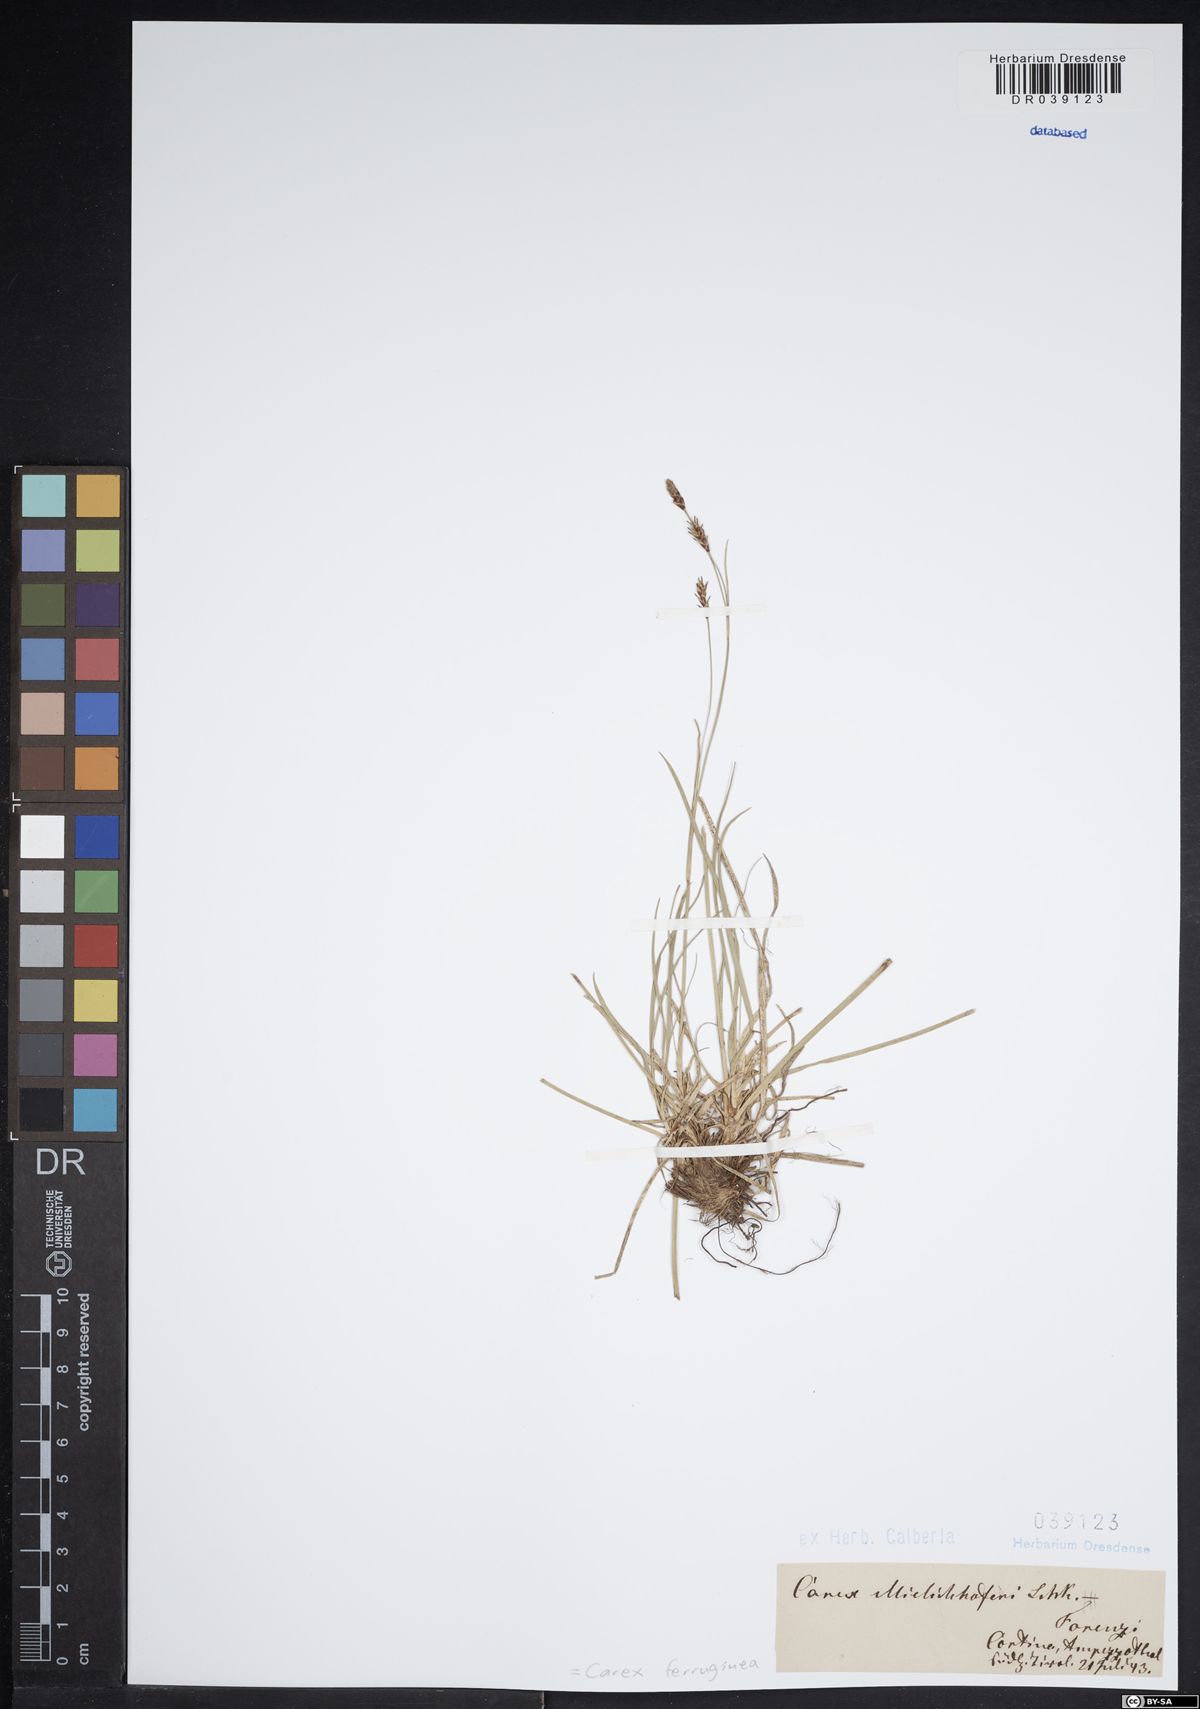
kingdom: Plantae
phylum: Tracheophyta
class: Liliopsida
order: Poales
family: Cyperaceae
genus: Carex
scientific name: Carex ferruginea
